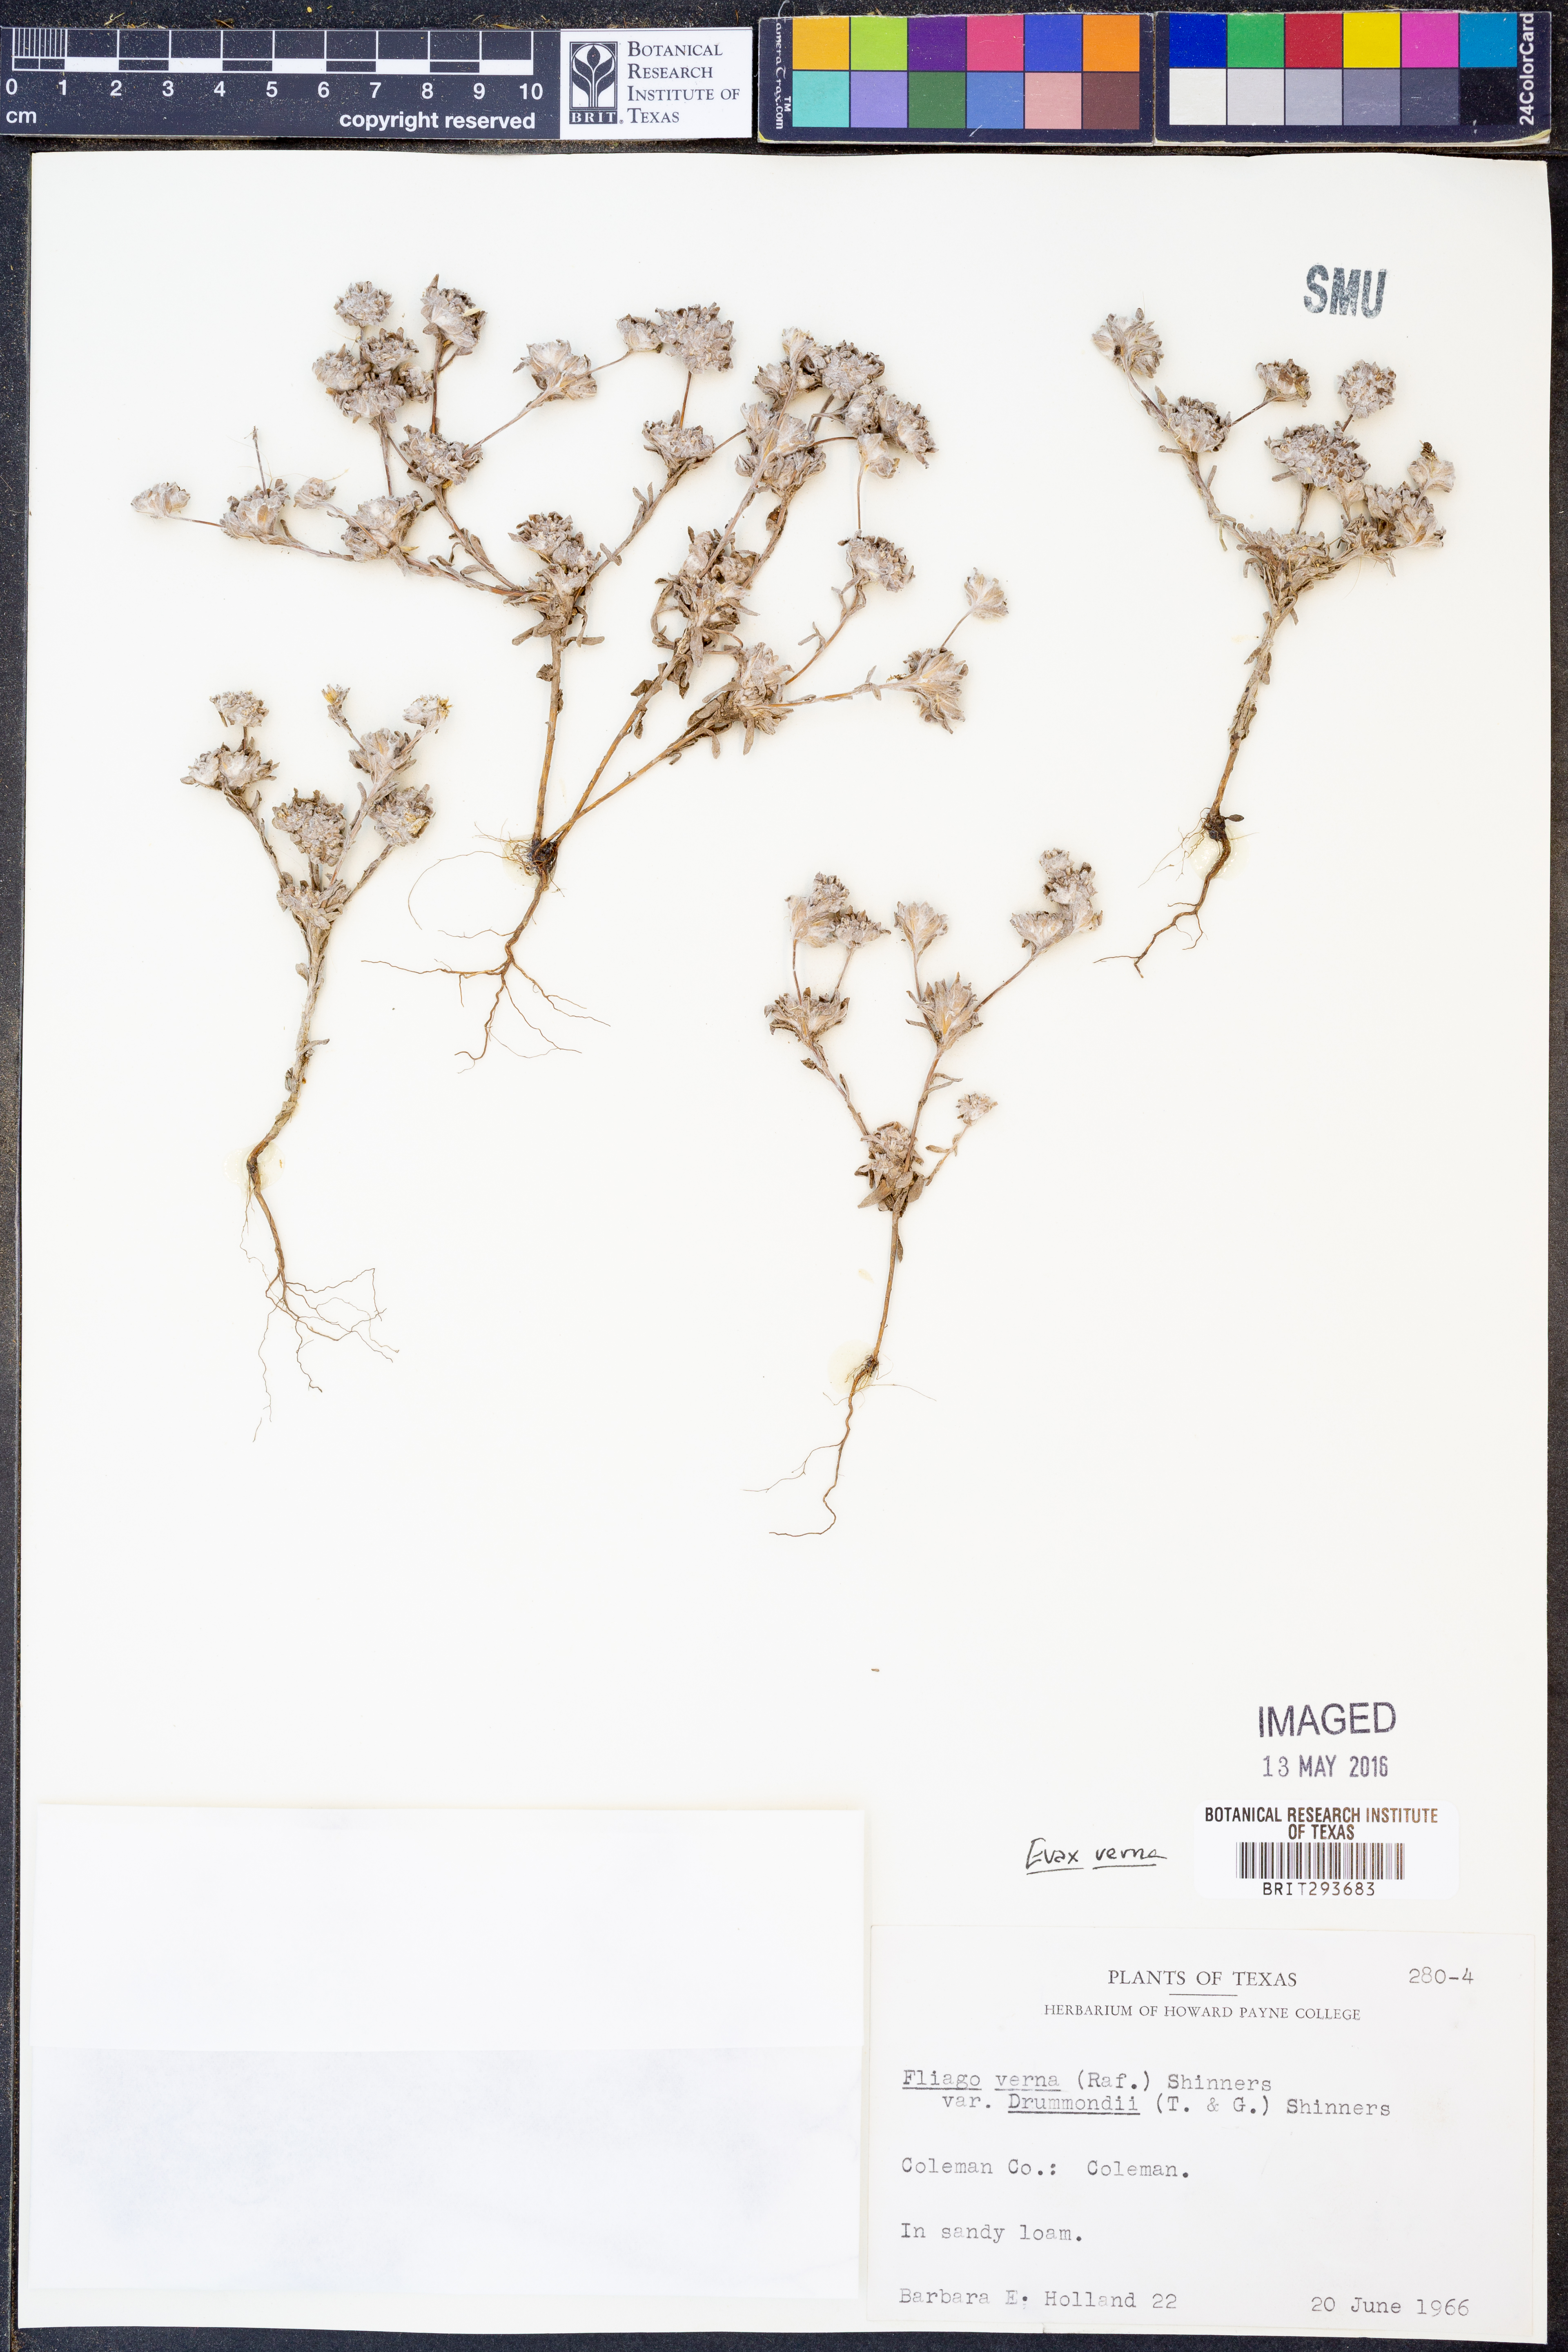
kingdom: Plantae
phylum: Tracheophyta
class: Magnoliopsida
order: Asterales
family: Asteraceae
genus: Diaperia
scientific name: Diaperia verna
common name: Many-stem rabbit-tobacco
